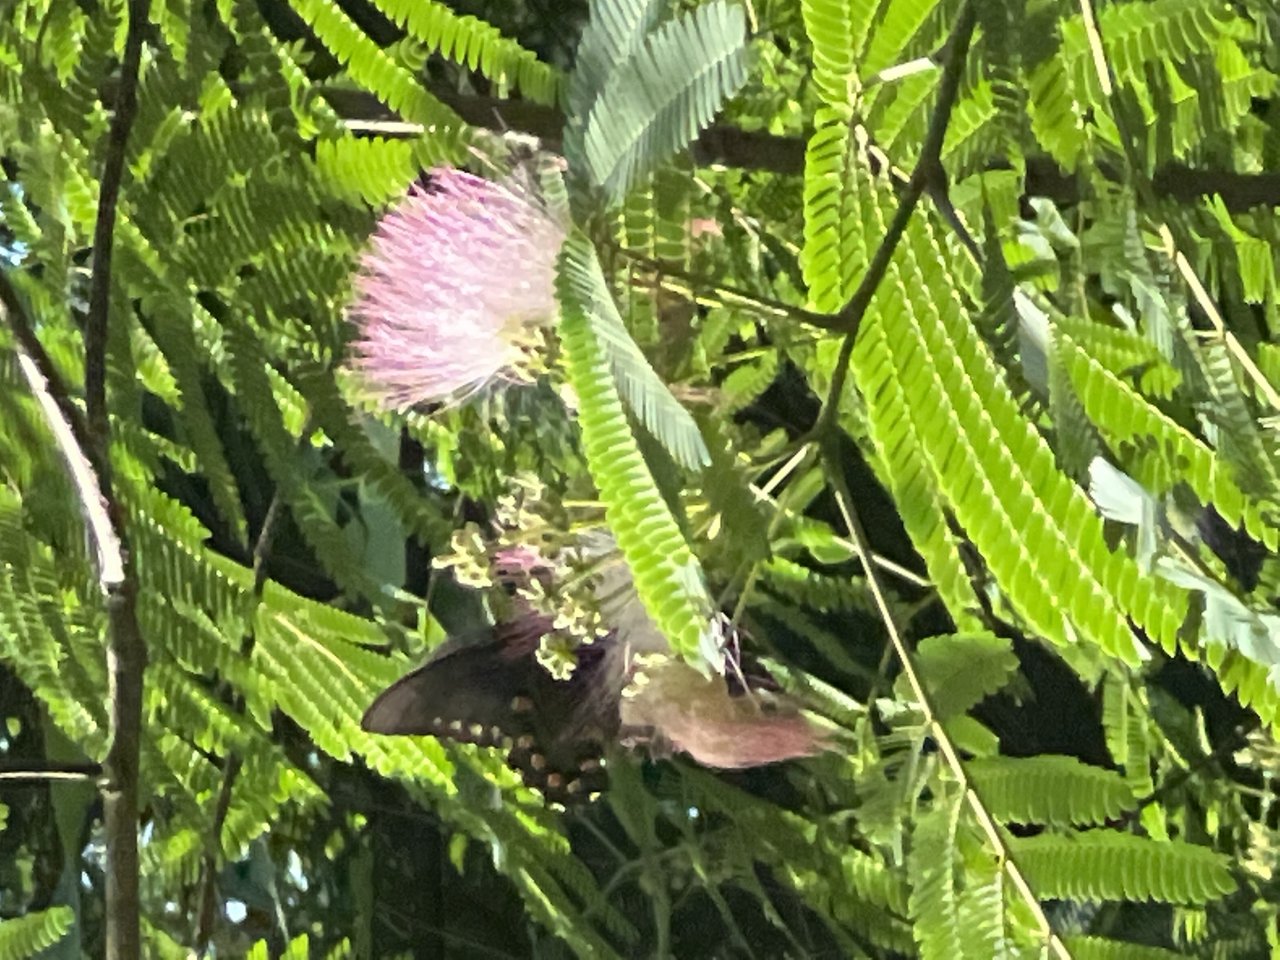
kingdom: Animalia
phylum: Arthropoda
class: Insecta
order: Lepidoptera
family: Papilionidae
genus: Battus
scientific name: Battus philenor
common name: Pipevine Swallowtail
